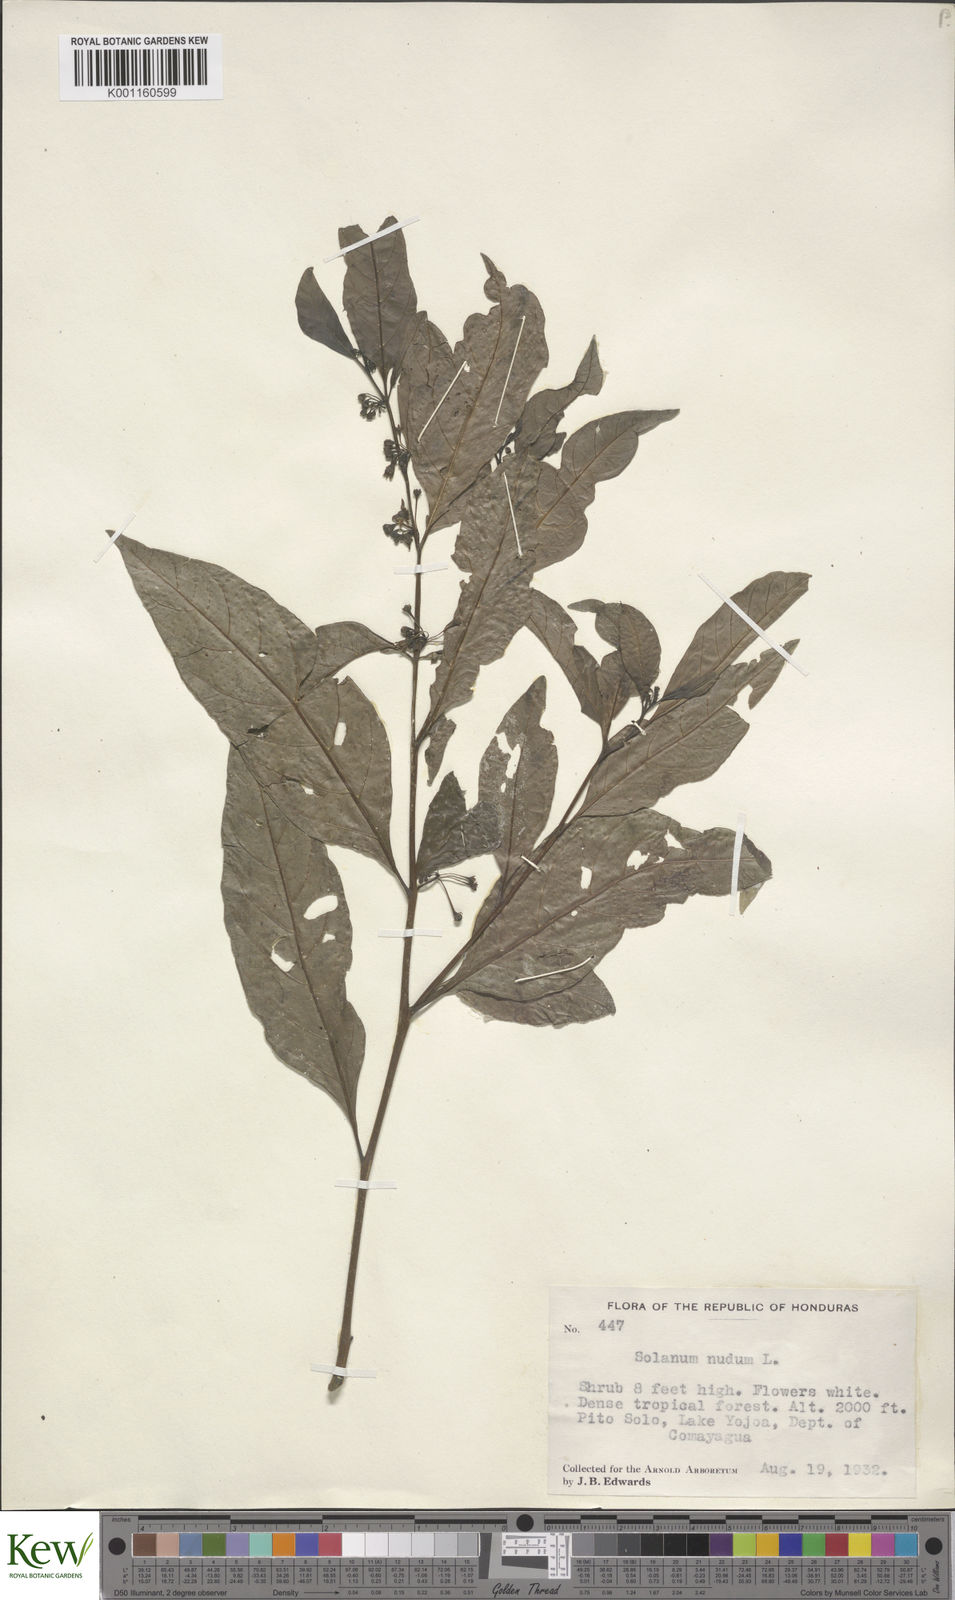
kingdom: Plantae
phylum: Tracheophyta
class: Magnoliopsida
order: Solanales
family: Solanaceae
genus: Solanum
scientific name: Solanum nudum
